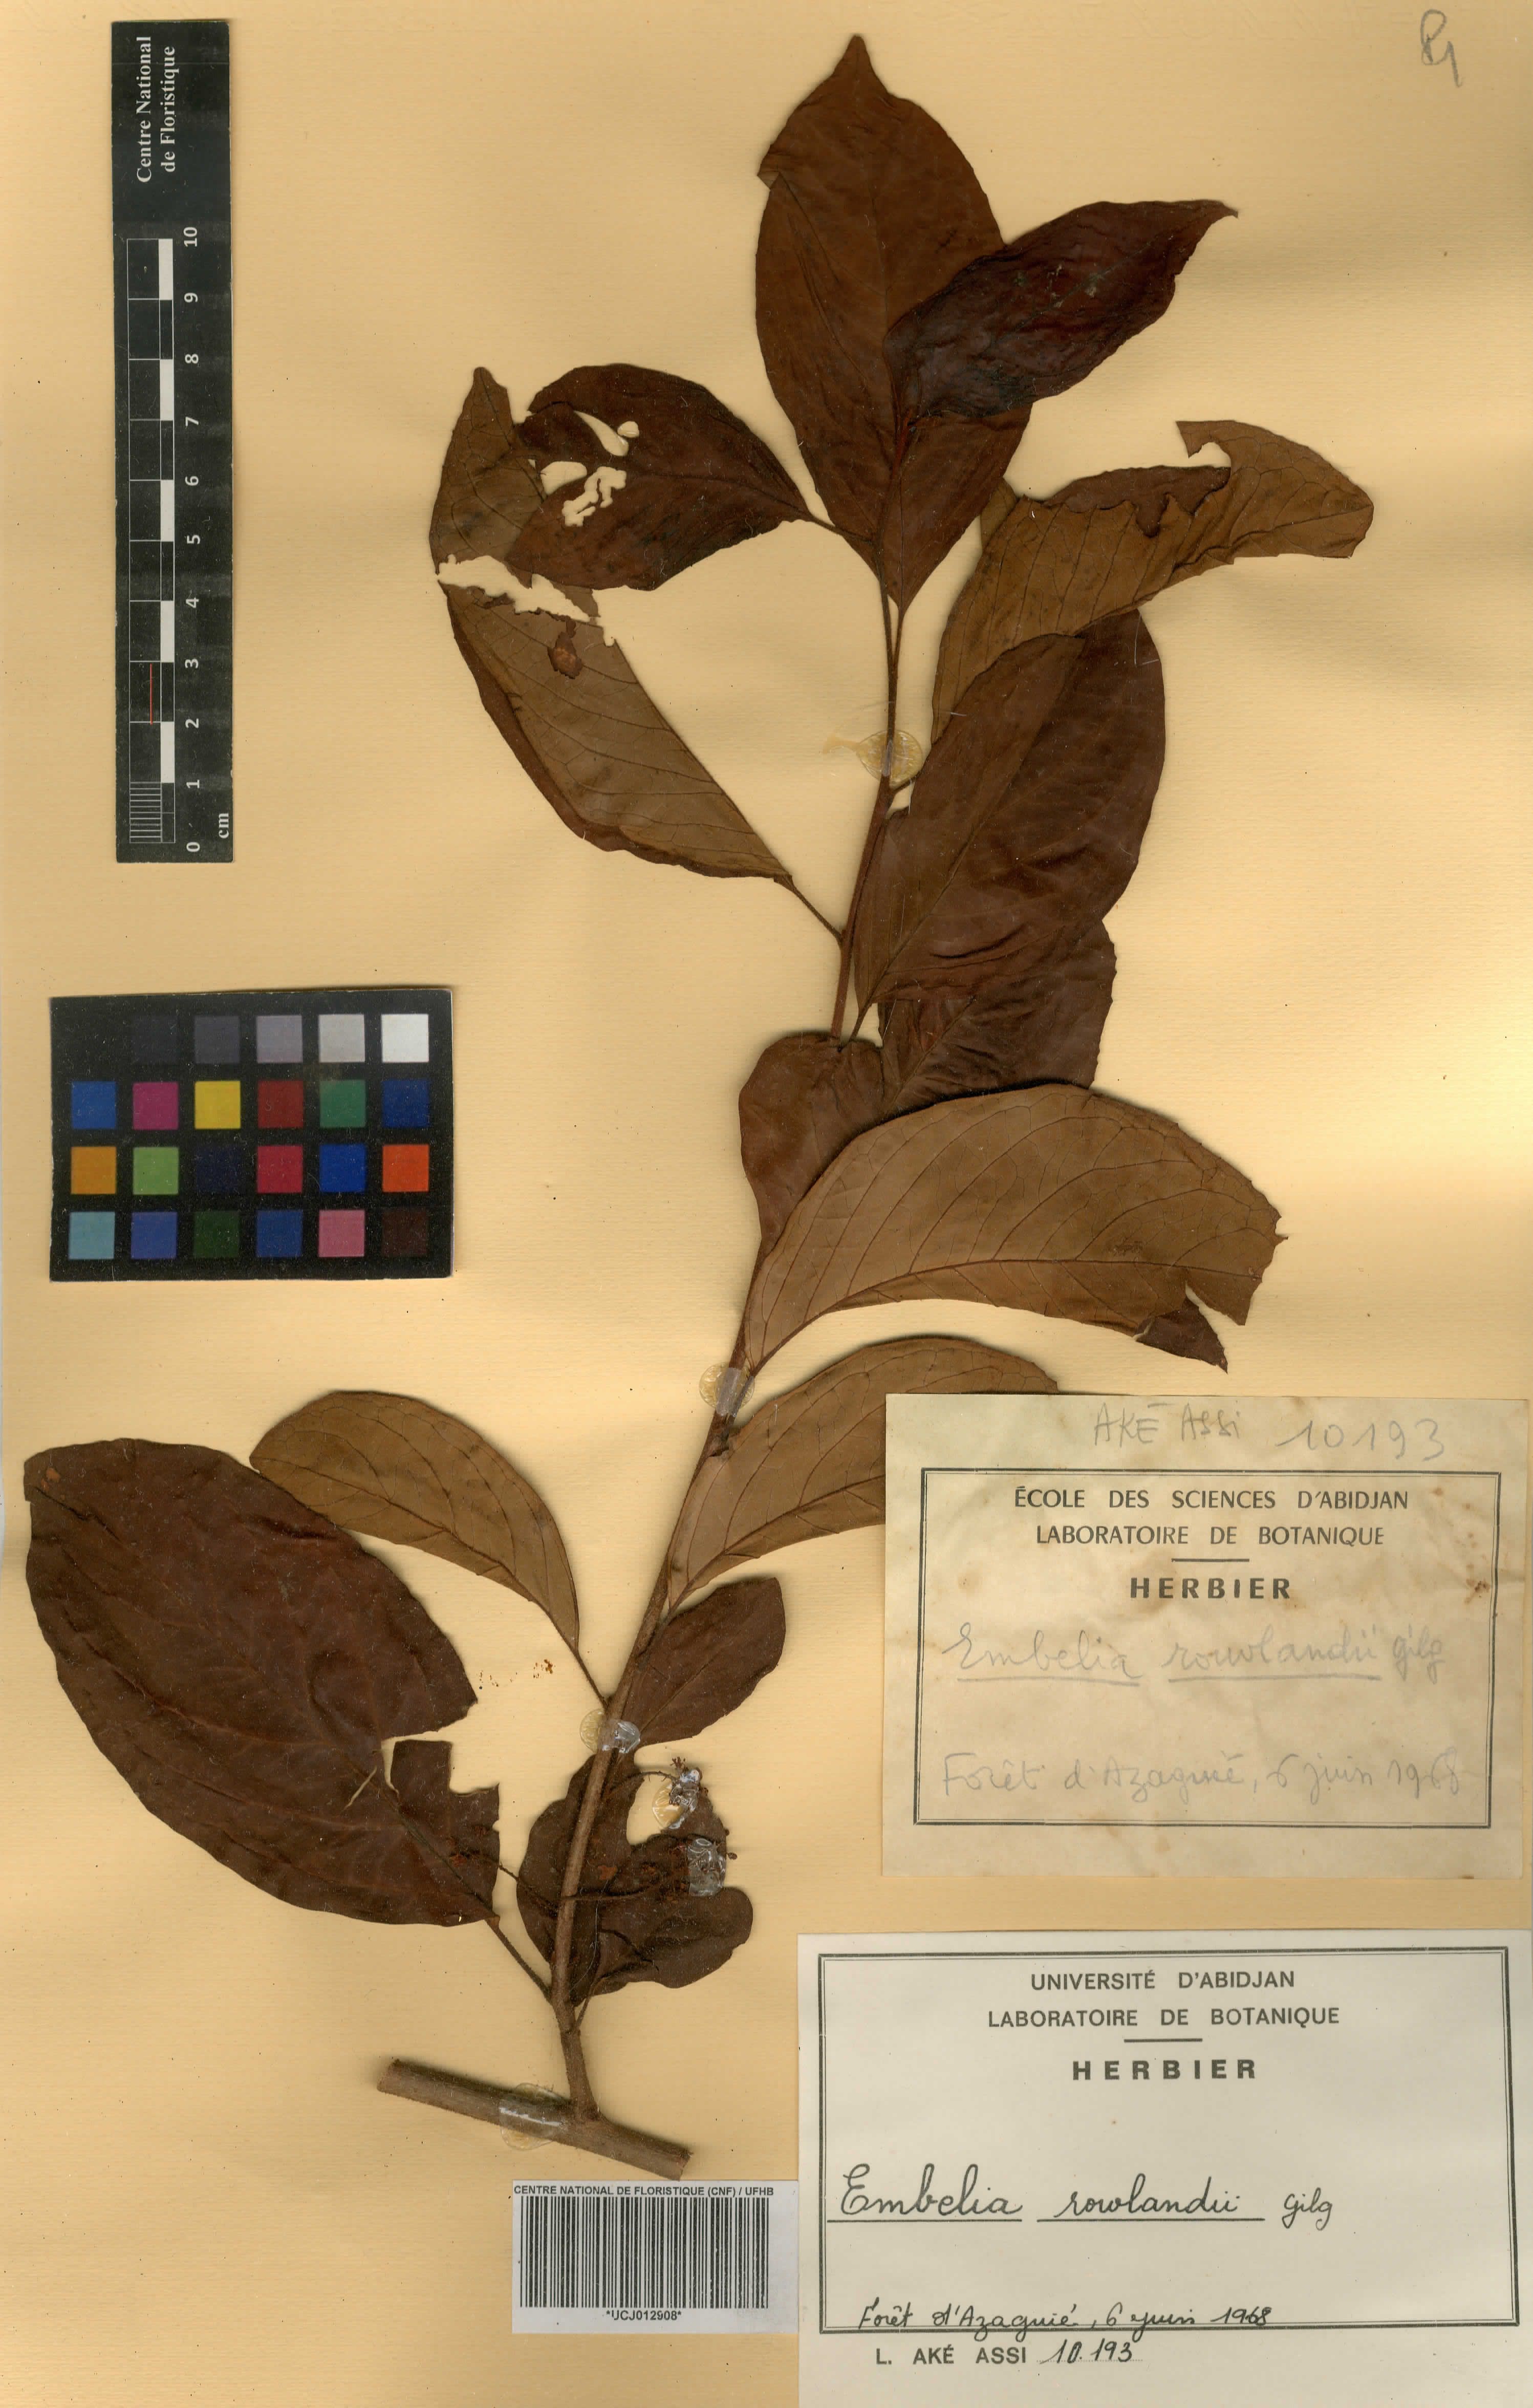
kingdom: Plantae
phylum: Tracheophyta
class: Magnoliopsida
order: Ericales
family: Primulaceae
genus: Embelia
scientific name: Embelia rowlandii
